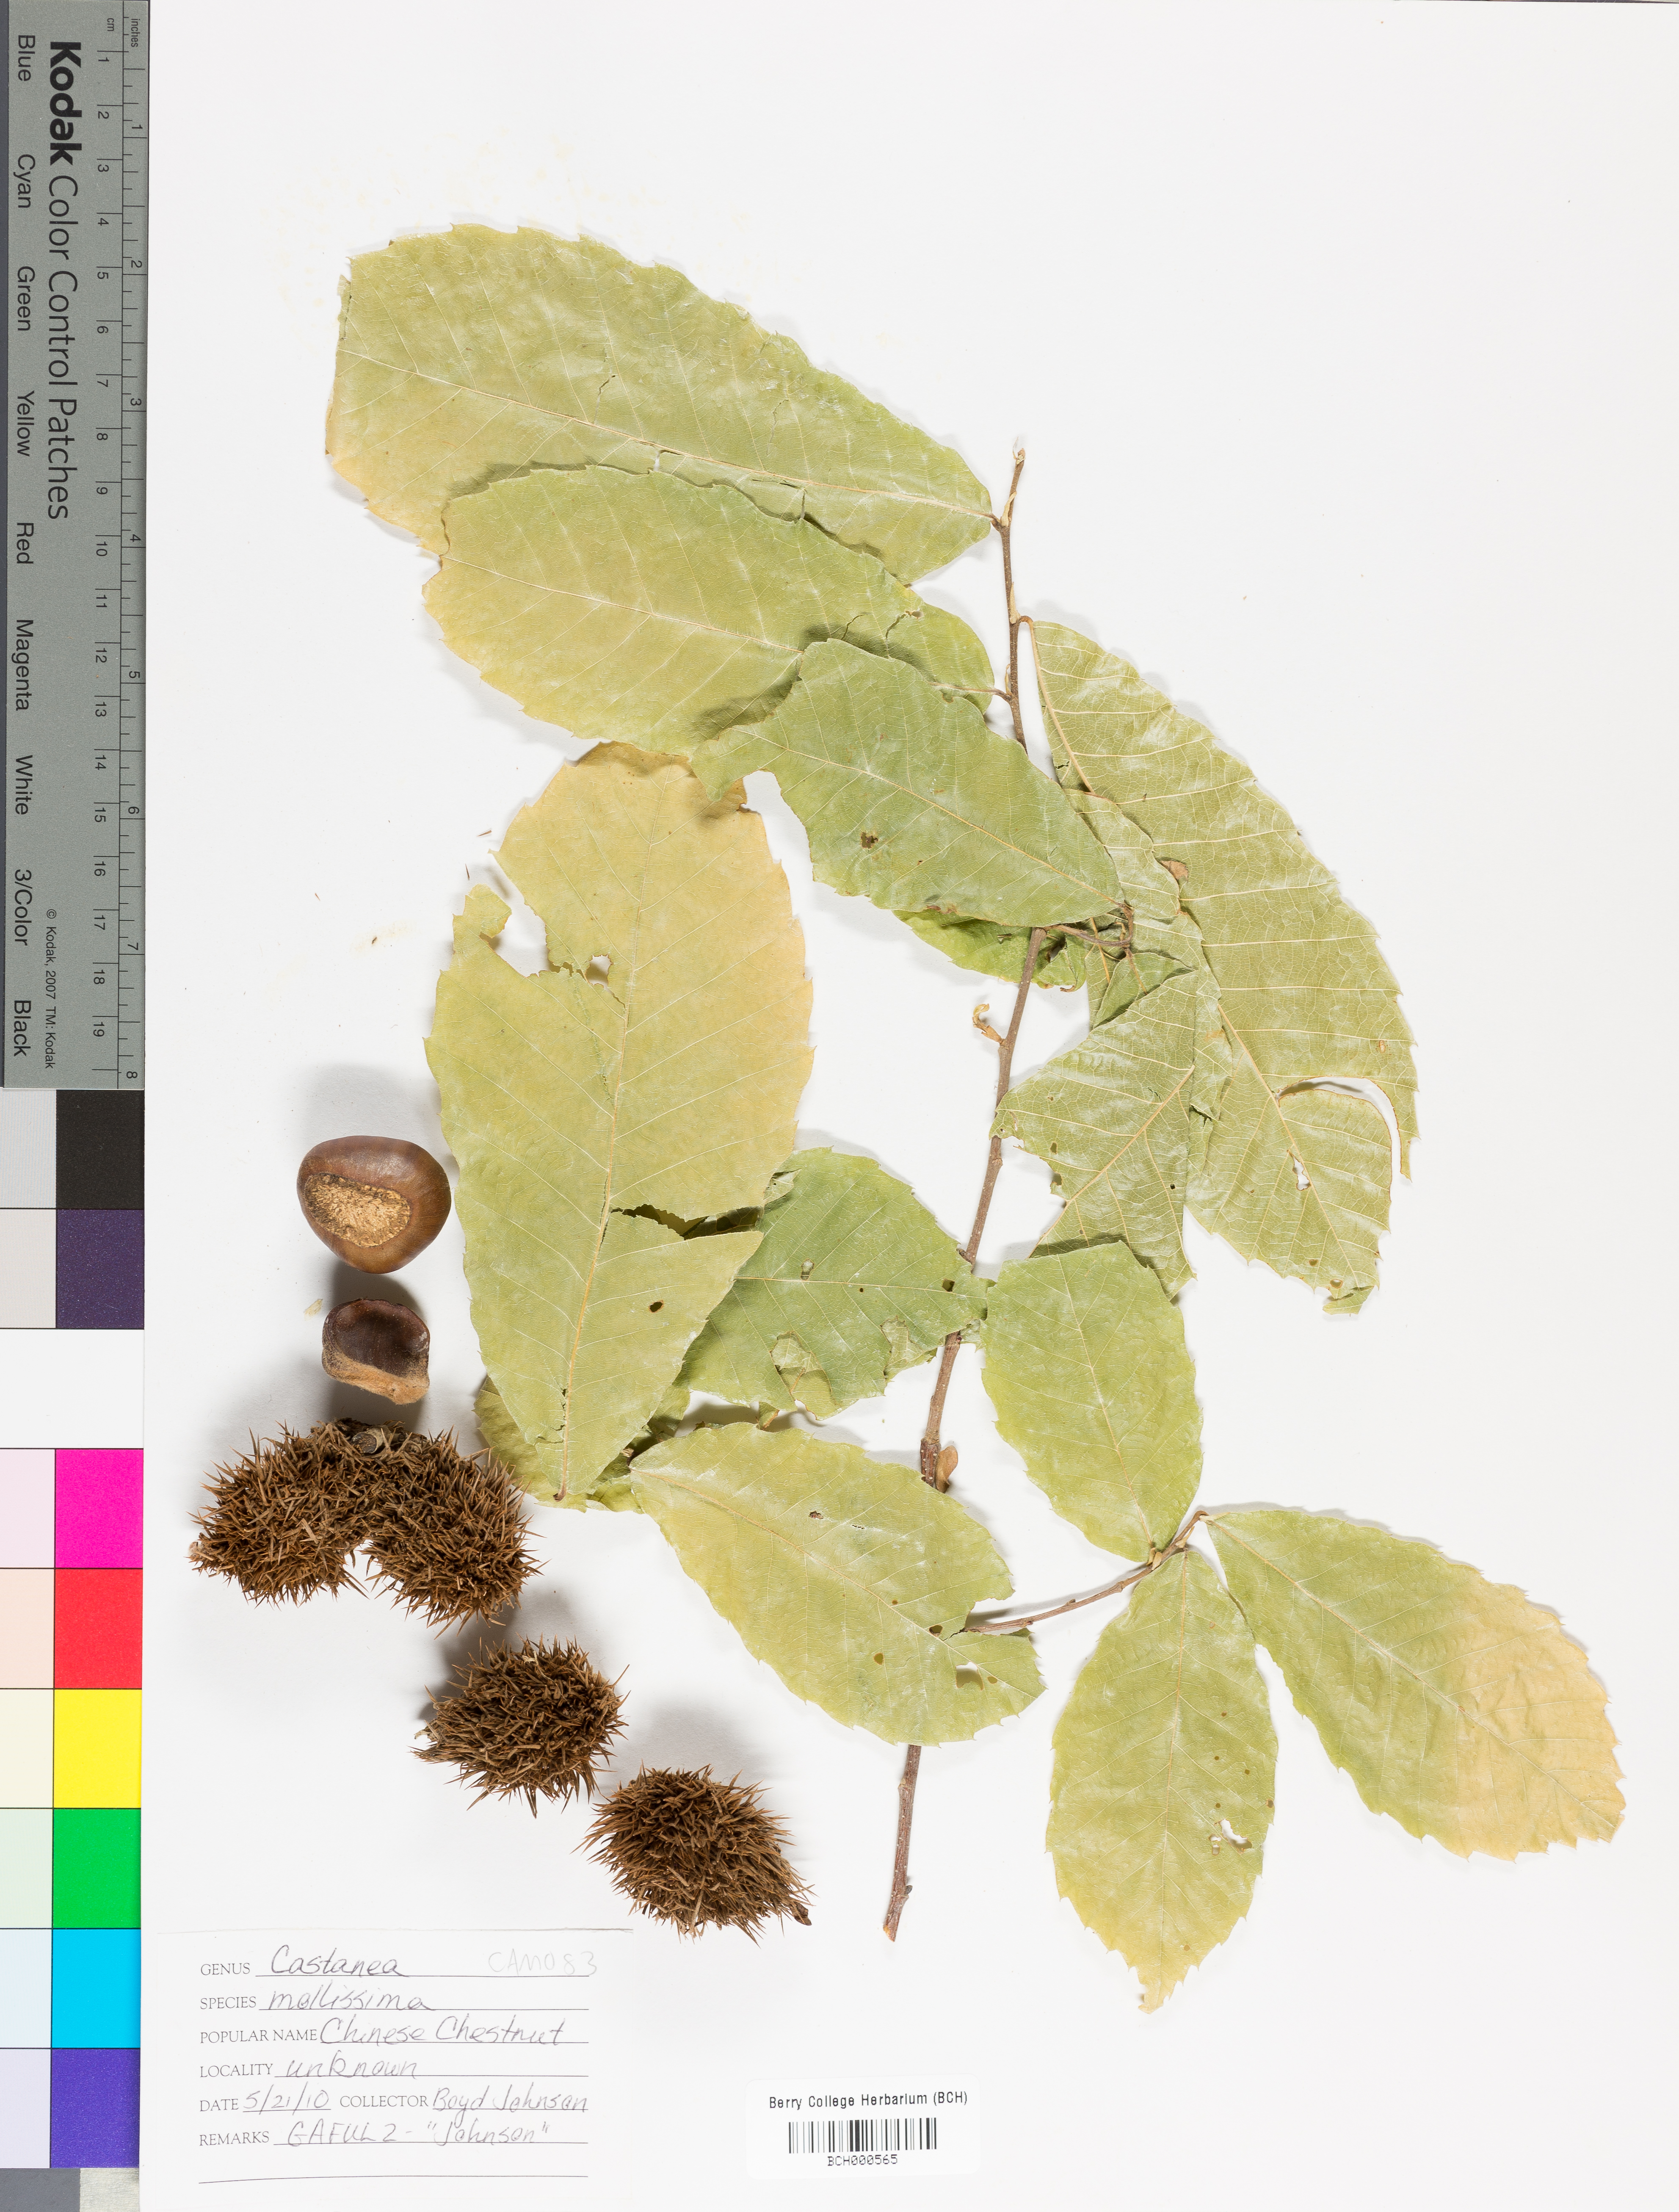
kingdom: Plantae
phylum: Tracheophyta
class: Magnoliopsida
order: Fagales
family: Fagaceae
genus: Castanea
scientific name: Castanea mollissima
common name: Chinese chestnut
